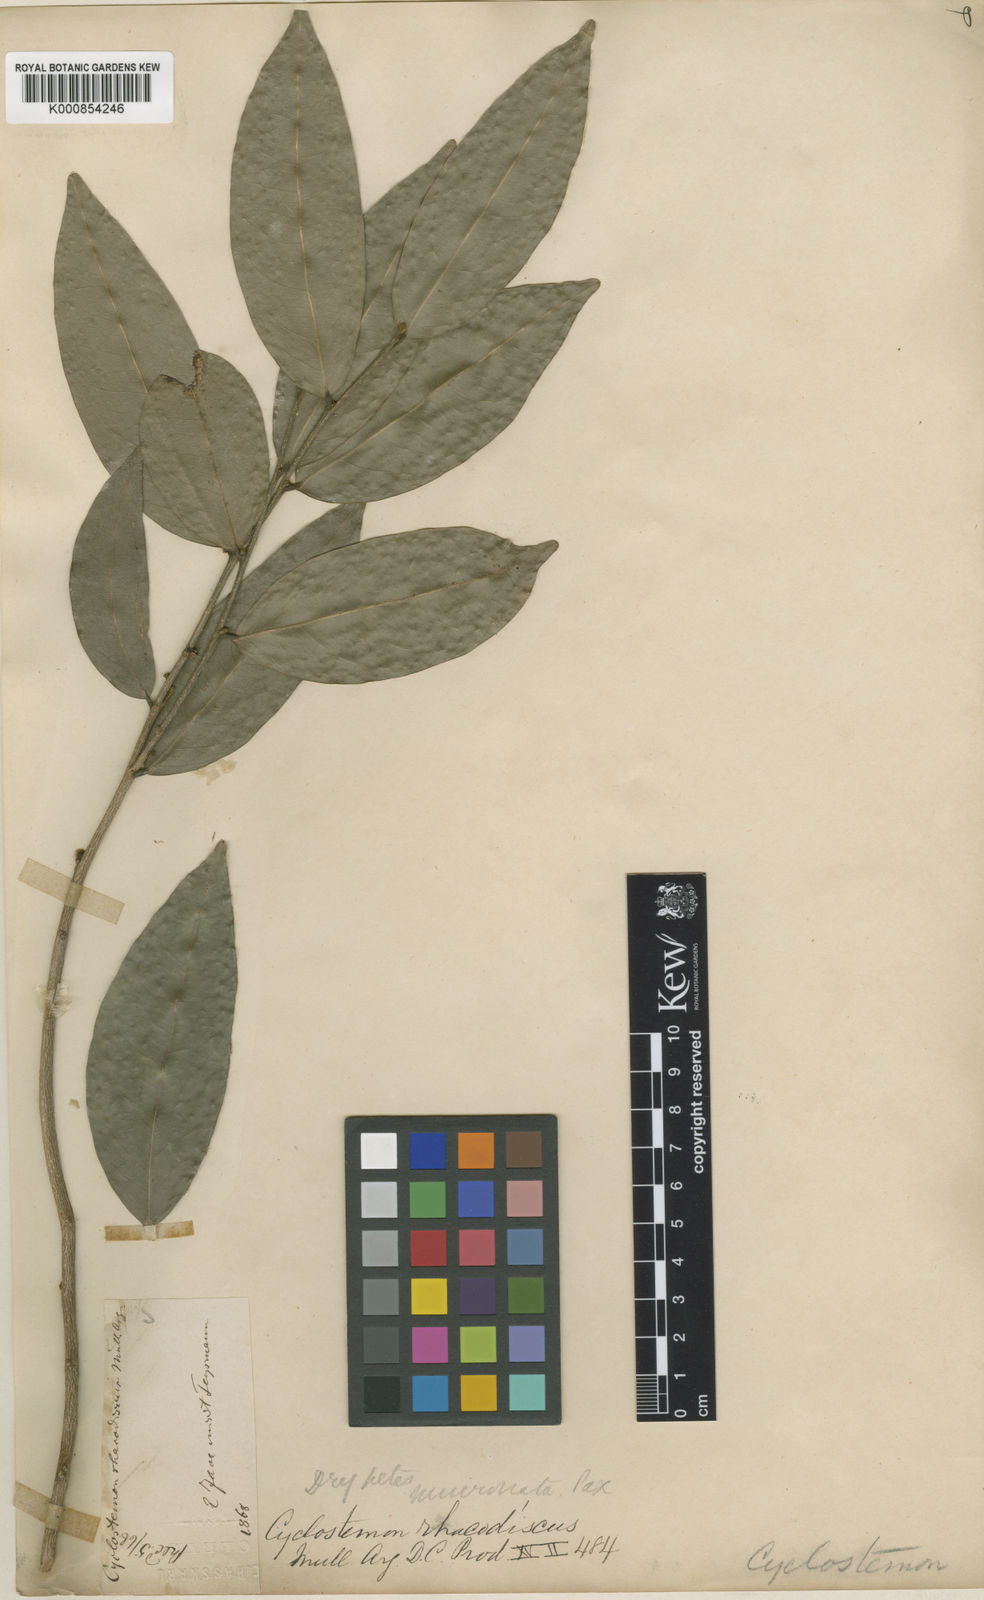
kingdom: Plantae
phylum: Tracheophyta
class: Magnoliopsida
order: Malpighiales
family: Putranjivaceae
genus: Drypetes
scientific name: Drypetes mucronata
